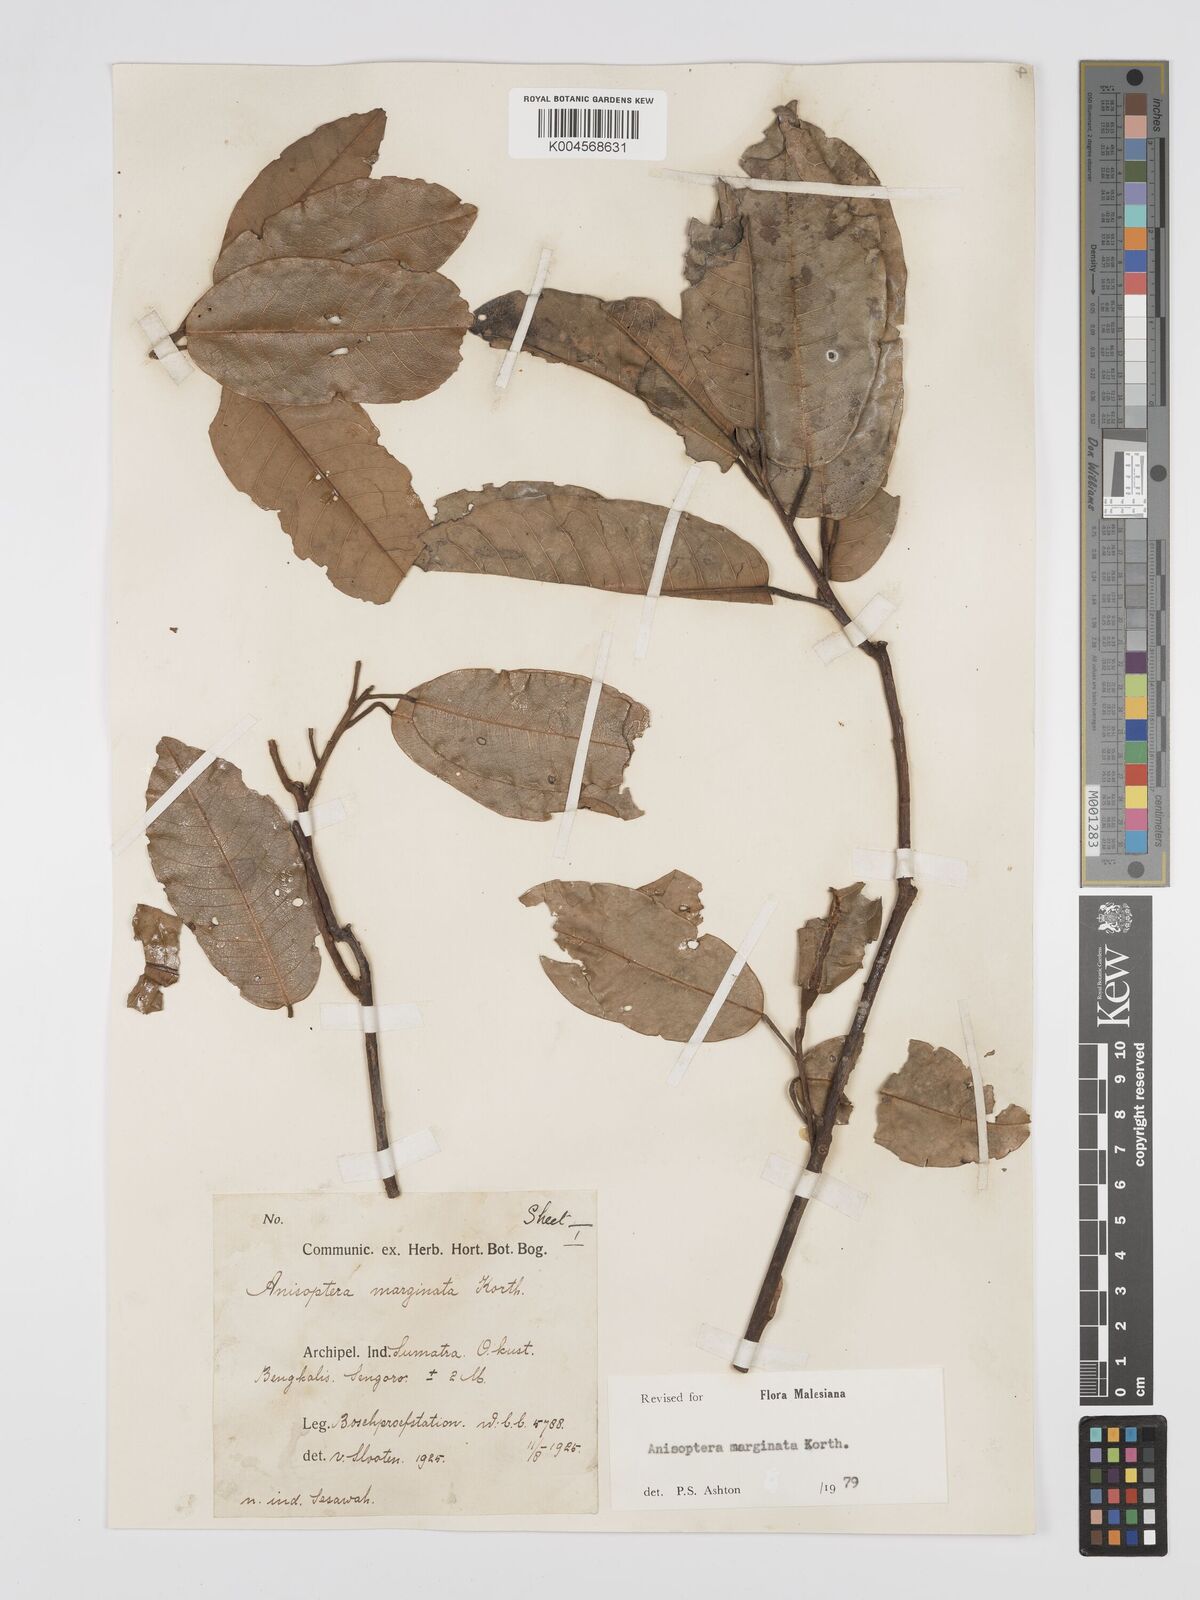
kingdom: Plantae
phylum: Tracheophyta
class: Magnoliopsida
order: Malvales
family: Dipterocarpaceae
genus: Anisoptera
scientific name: Anisoptera marginata
